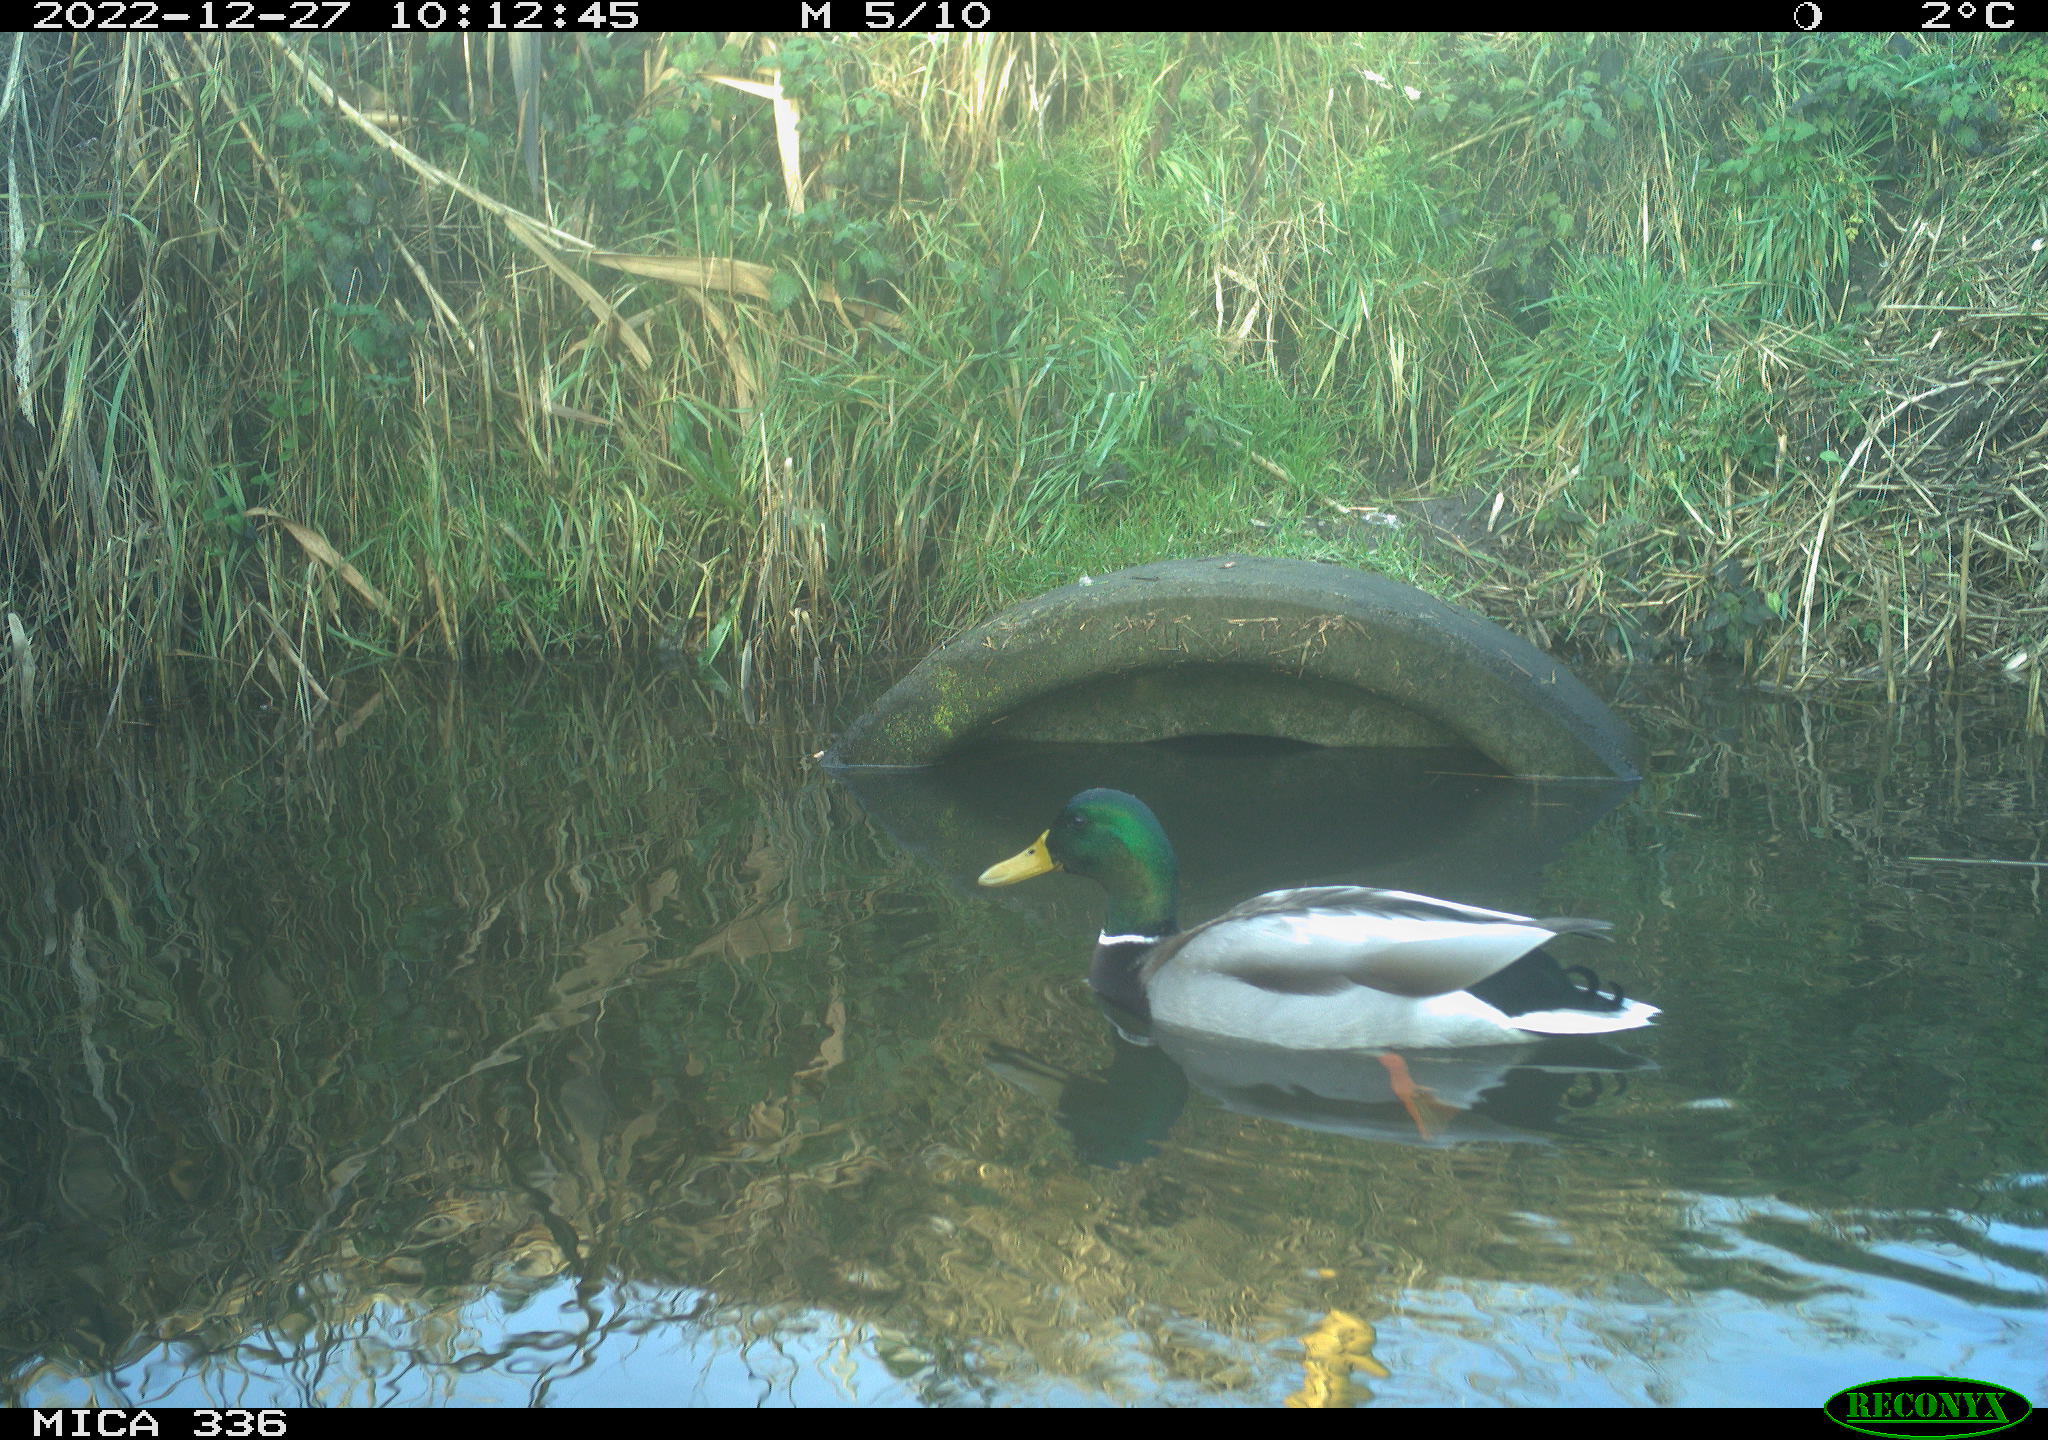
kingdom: Animalia
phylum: Chordata
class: Aves
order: Anseriformes
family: Anatidae
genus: Anas
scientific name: Anas
